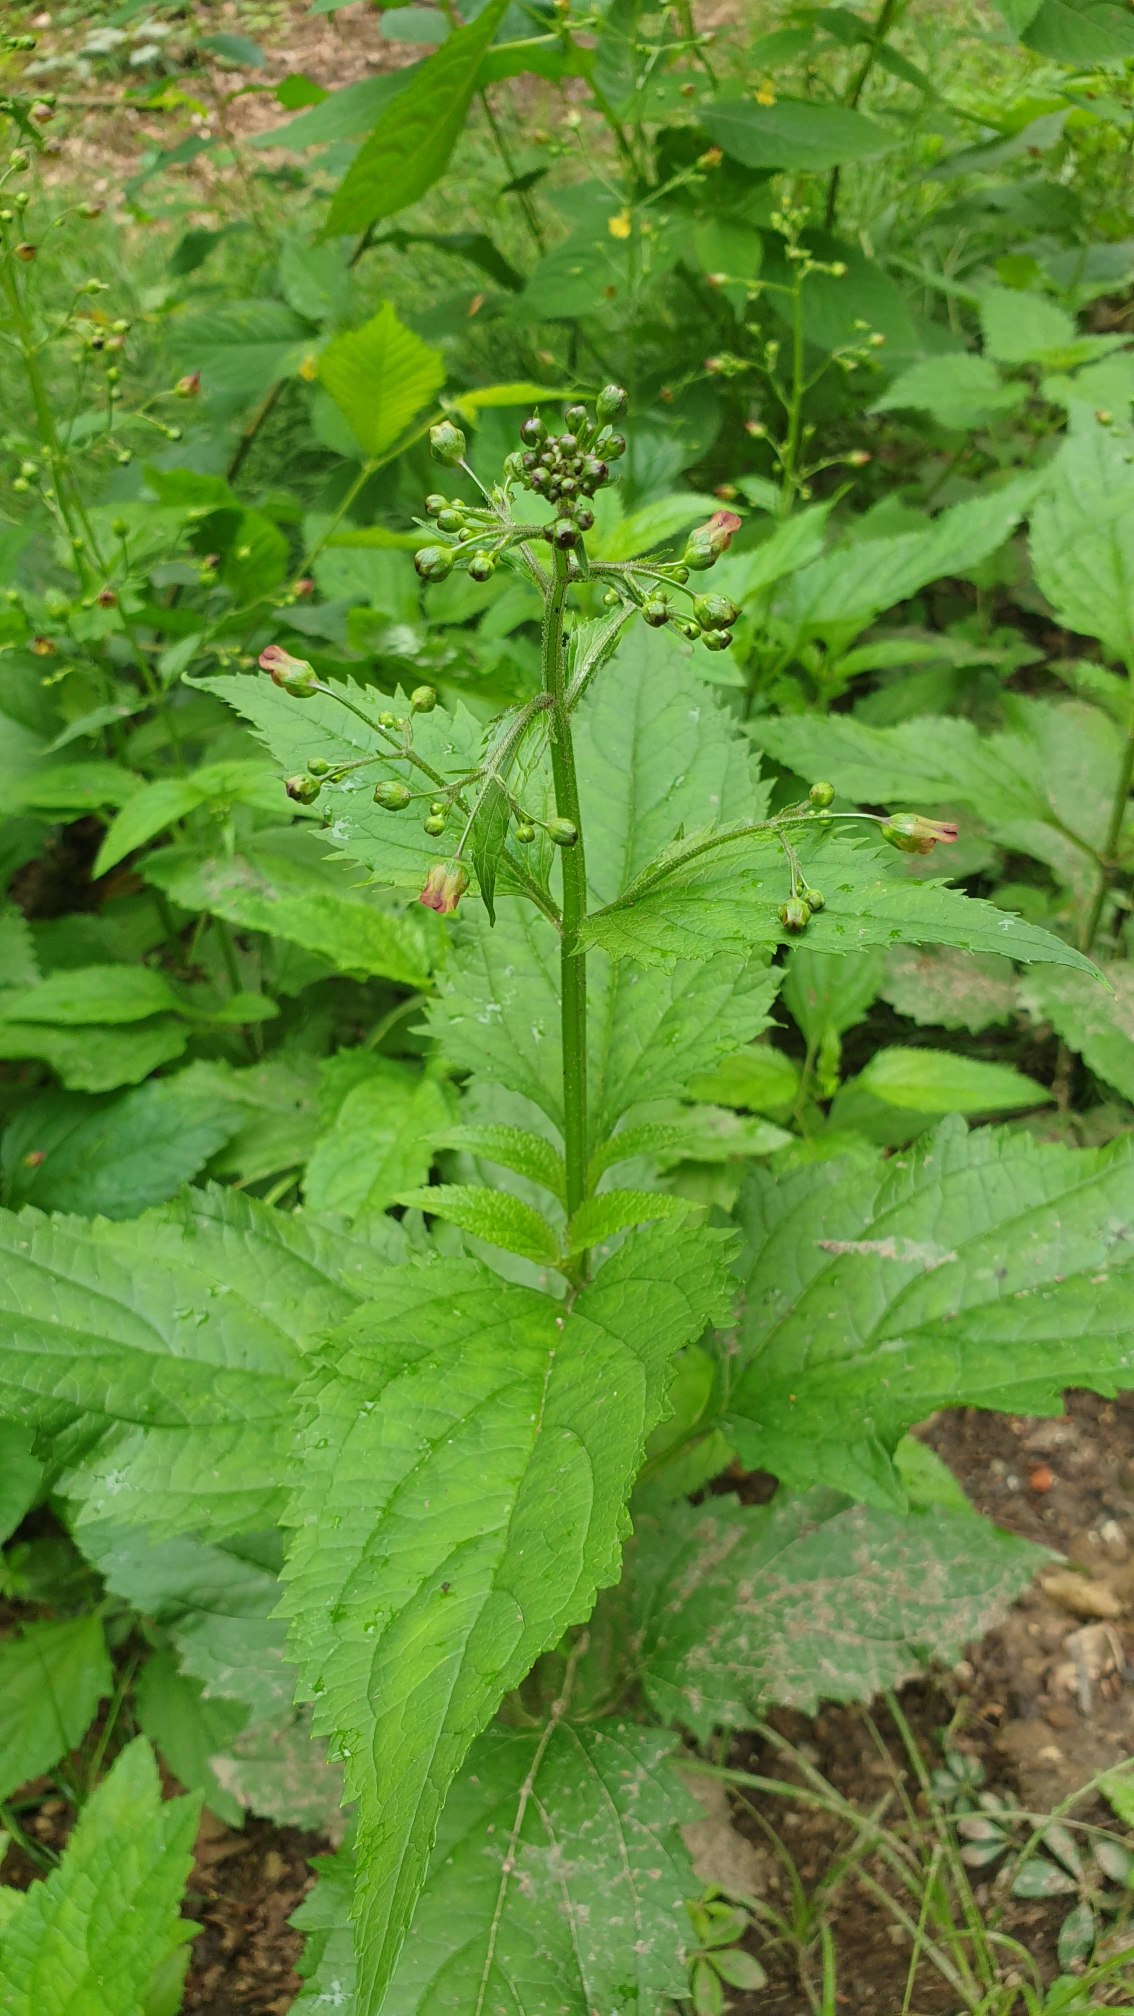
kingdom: Plantae
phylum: Tracheophyta
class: Magnoliopsida
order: Lamiales
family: Scrophulariaceae
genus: Scrophularia
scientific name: Scrophularia nodosa
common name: Knoldet brunrod
